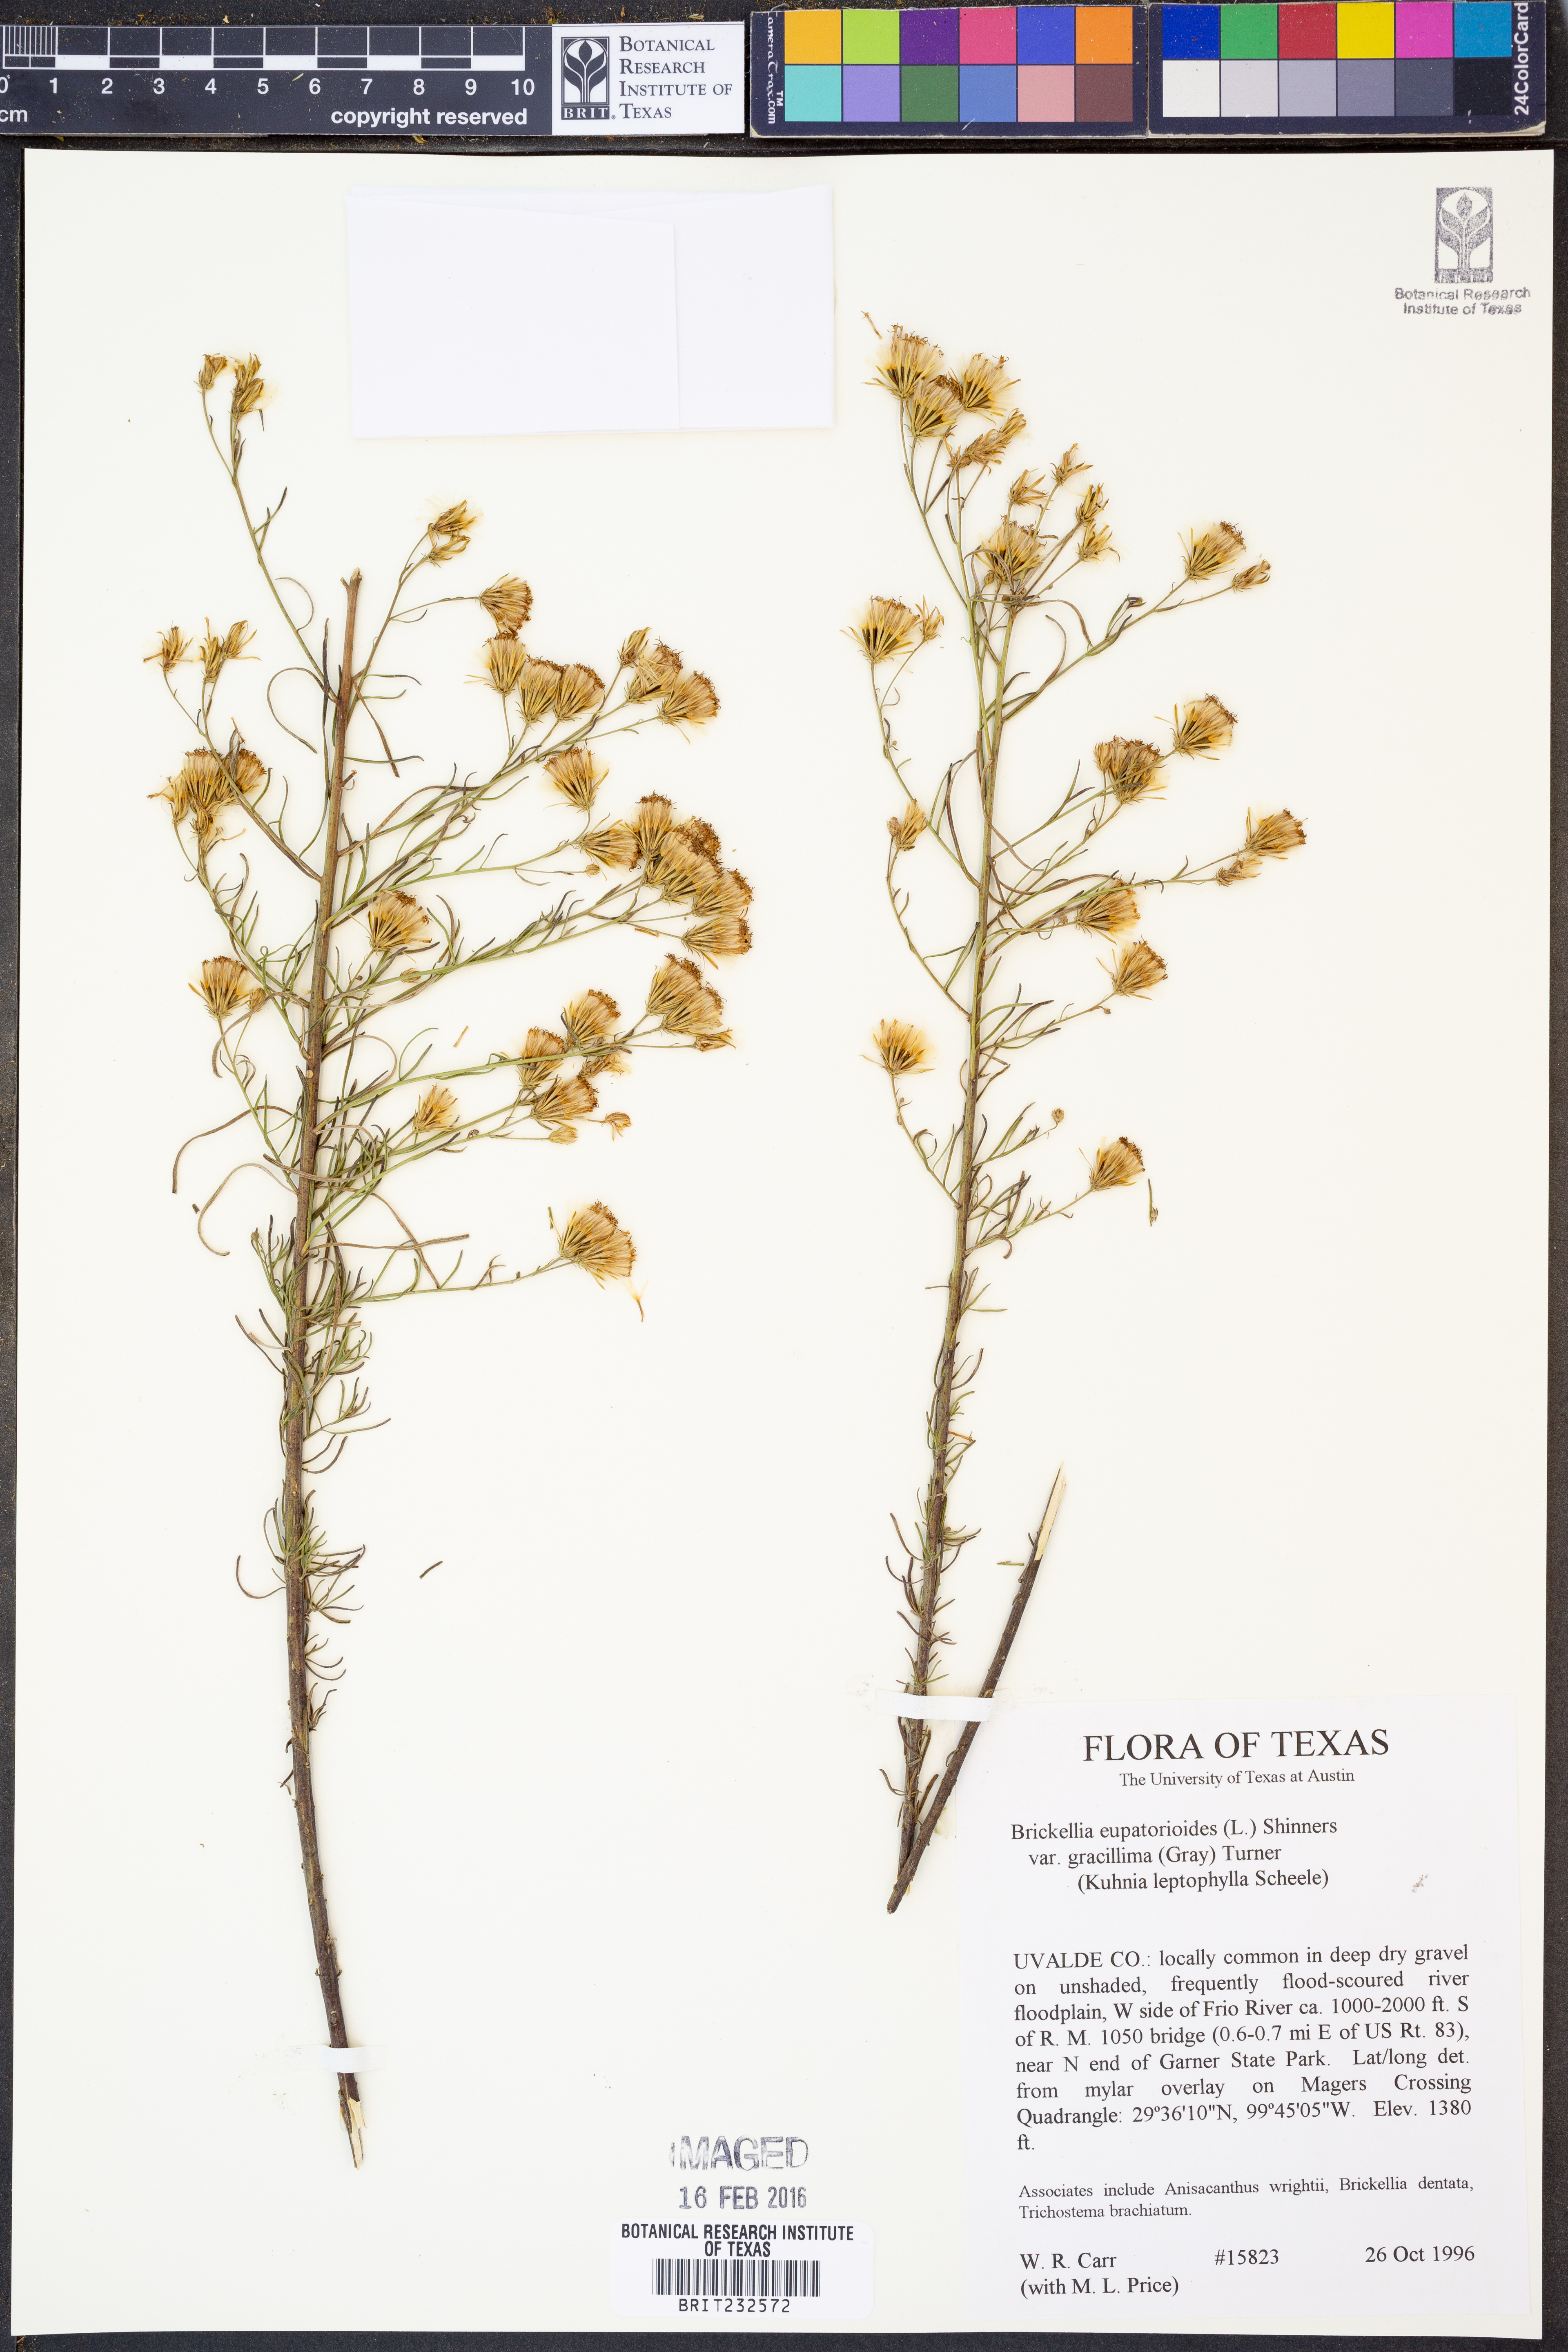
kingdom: Plantae
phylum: Tracheophyta
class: Magnoliopsida
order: Asterales
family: Asteraceae
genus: Brickellia
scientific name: Brickellia leptophylla
